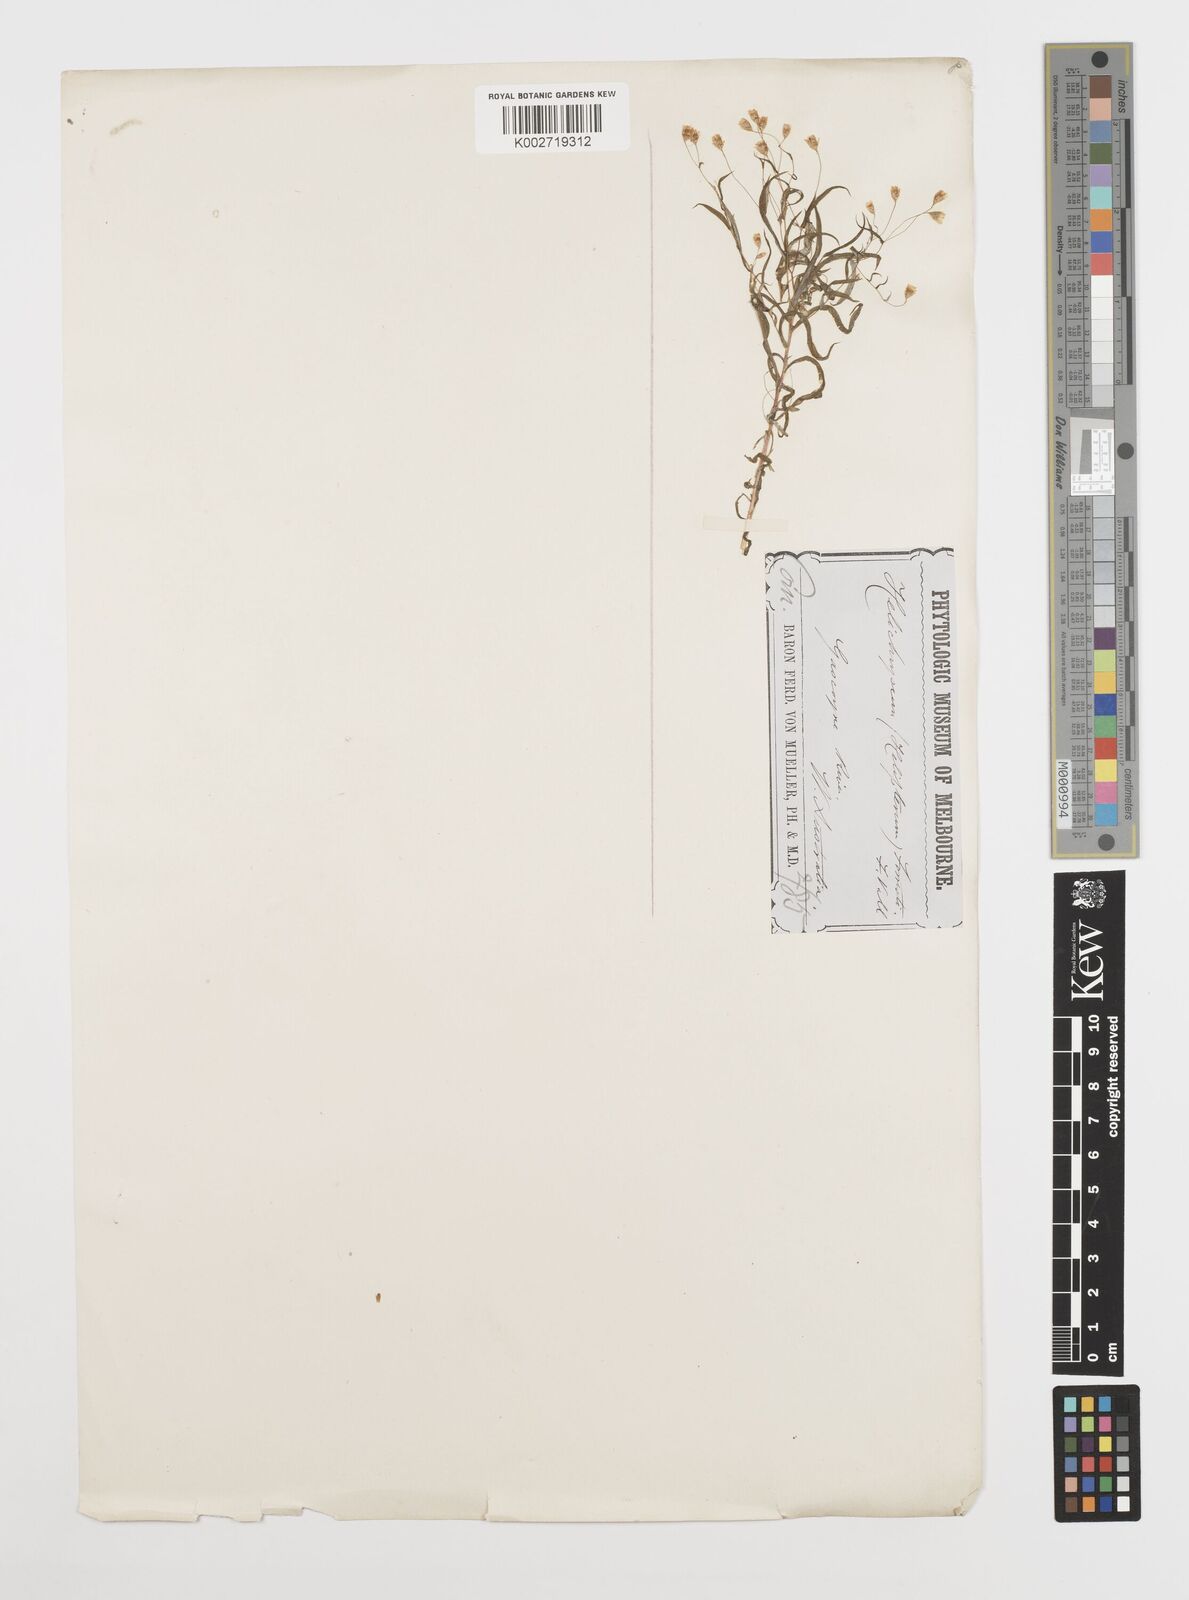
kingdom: Plantae
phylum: Tracheophyta
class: Magnoliopsida
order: Asterales
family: Asteraceae
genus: Rhodanthe
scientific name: Rhodanthe forrestii
